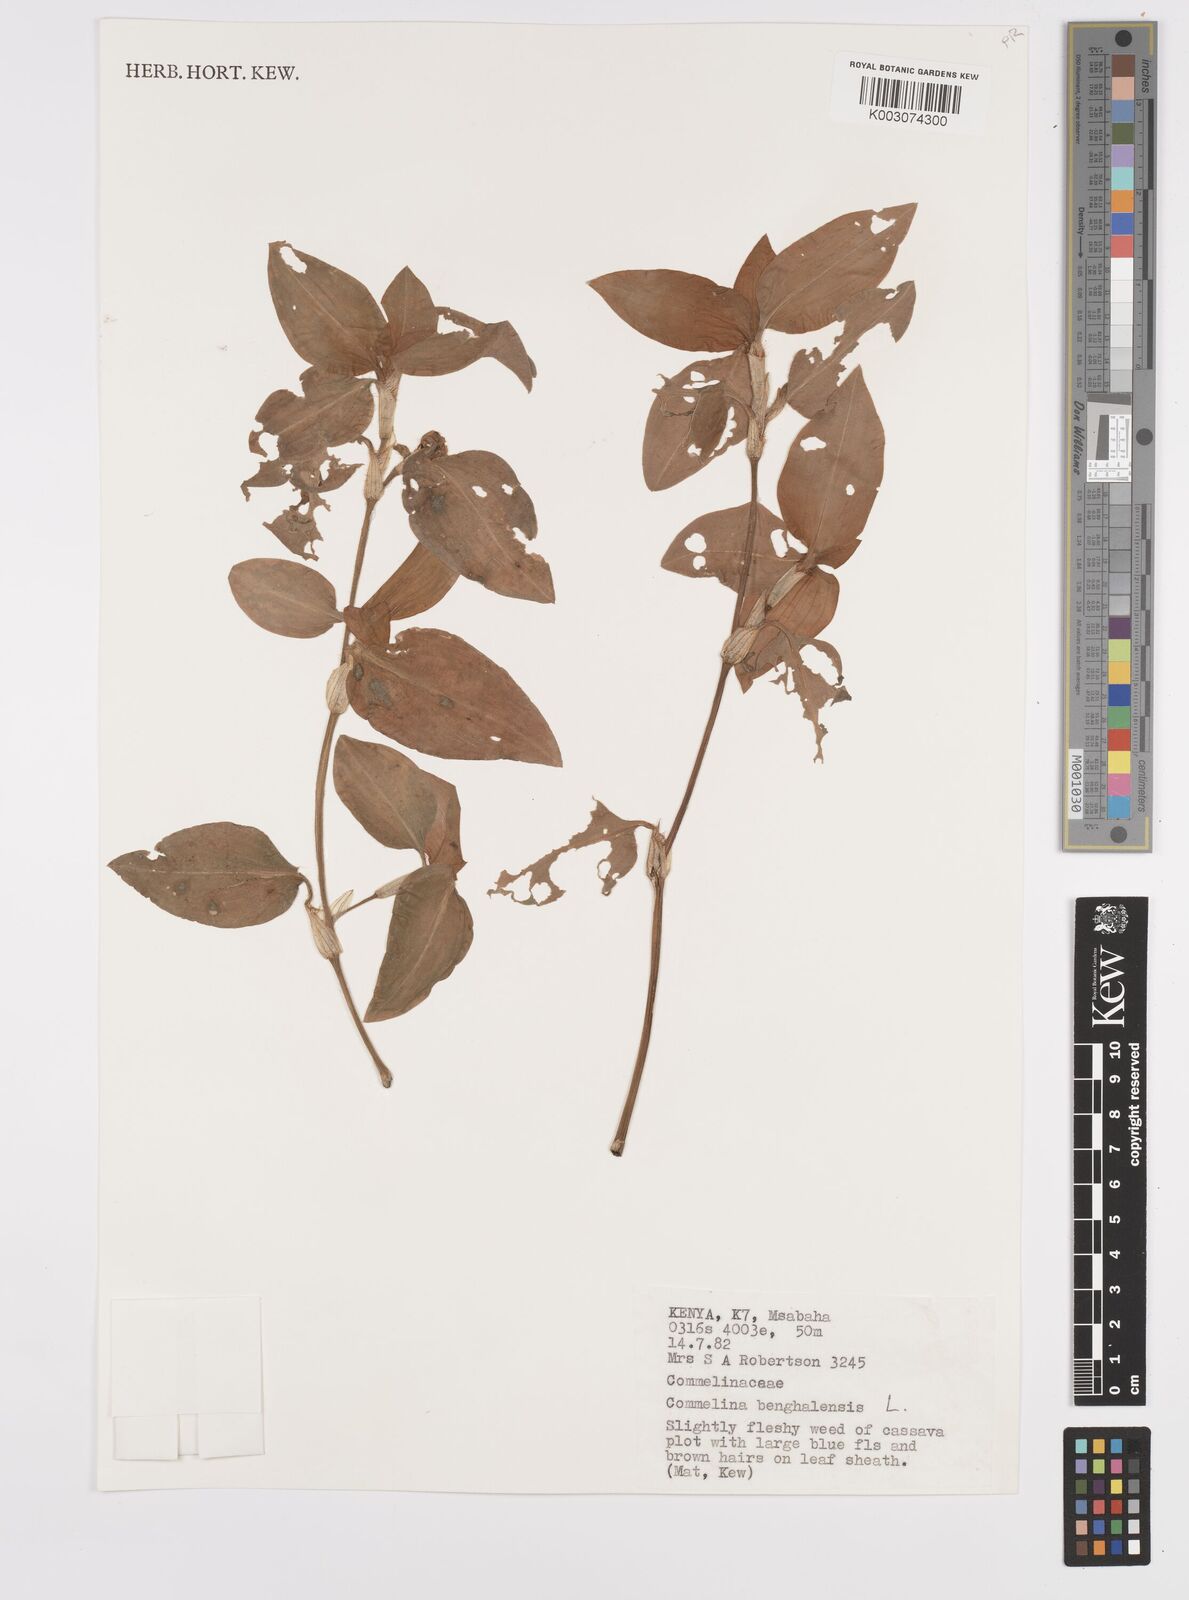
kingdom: Plantae
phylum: Tracheophyta
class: Liliopsida
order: Commelinales
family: Commelinaceae
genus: Commelina
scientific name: Commelina benghalensis
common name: Jio
